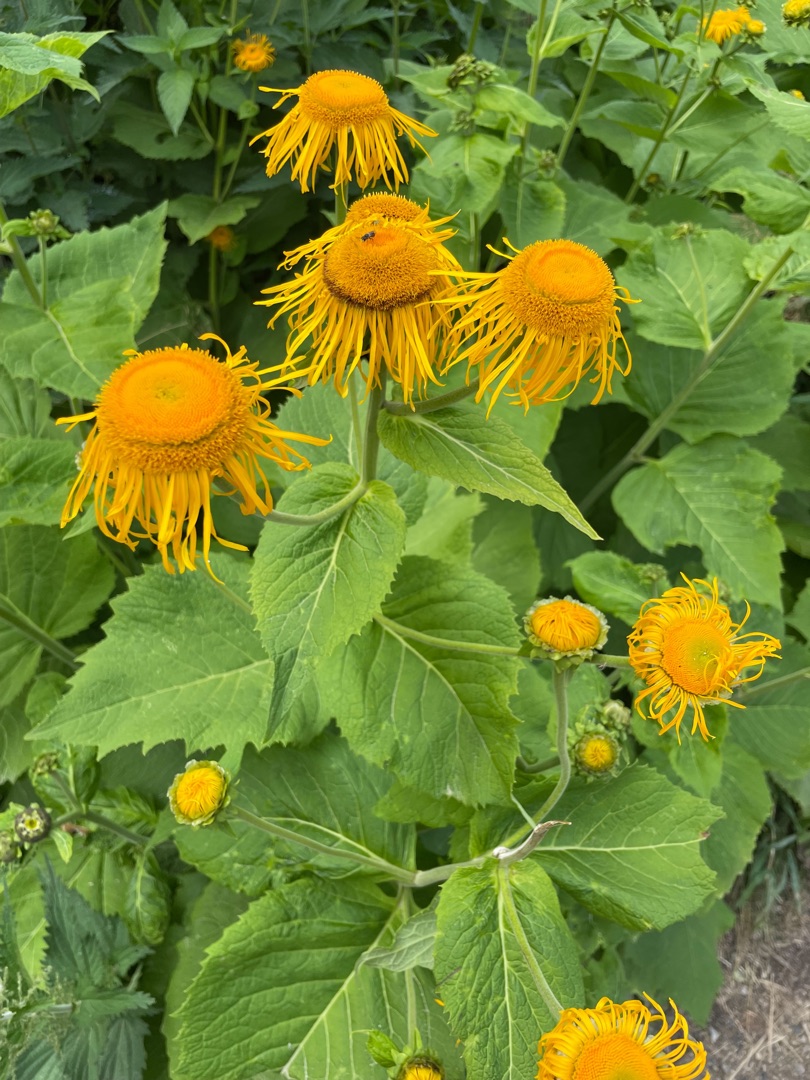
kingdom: Plantae
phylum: Tracheophyta
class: Magnoliopsida
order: Asterales
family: Asteraceae
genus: Telekia
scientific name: Telekia speciosa
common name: Tusindstråle
